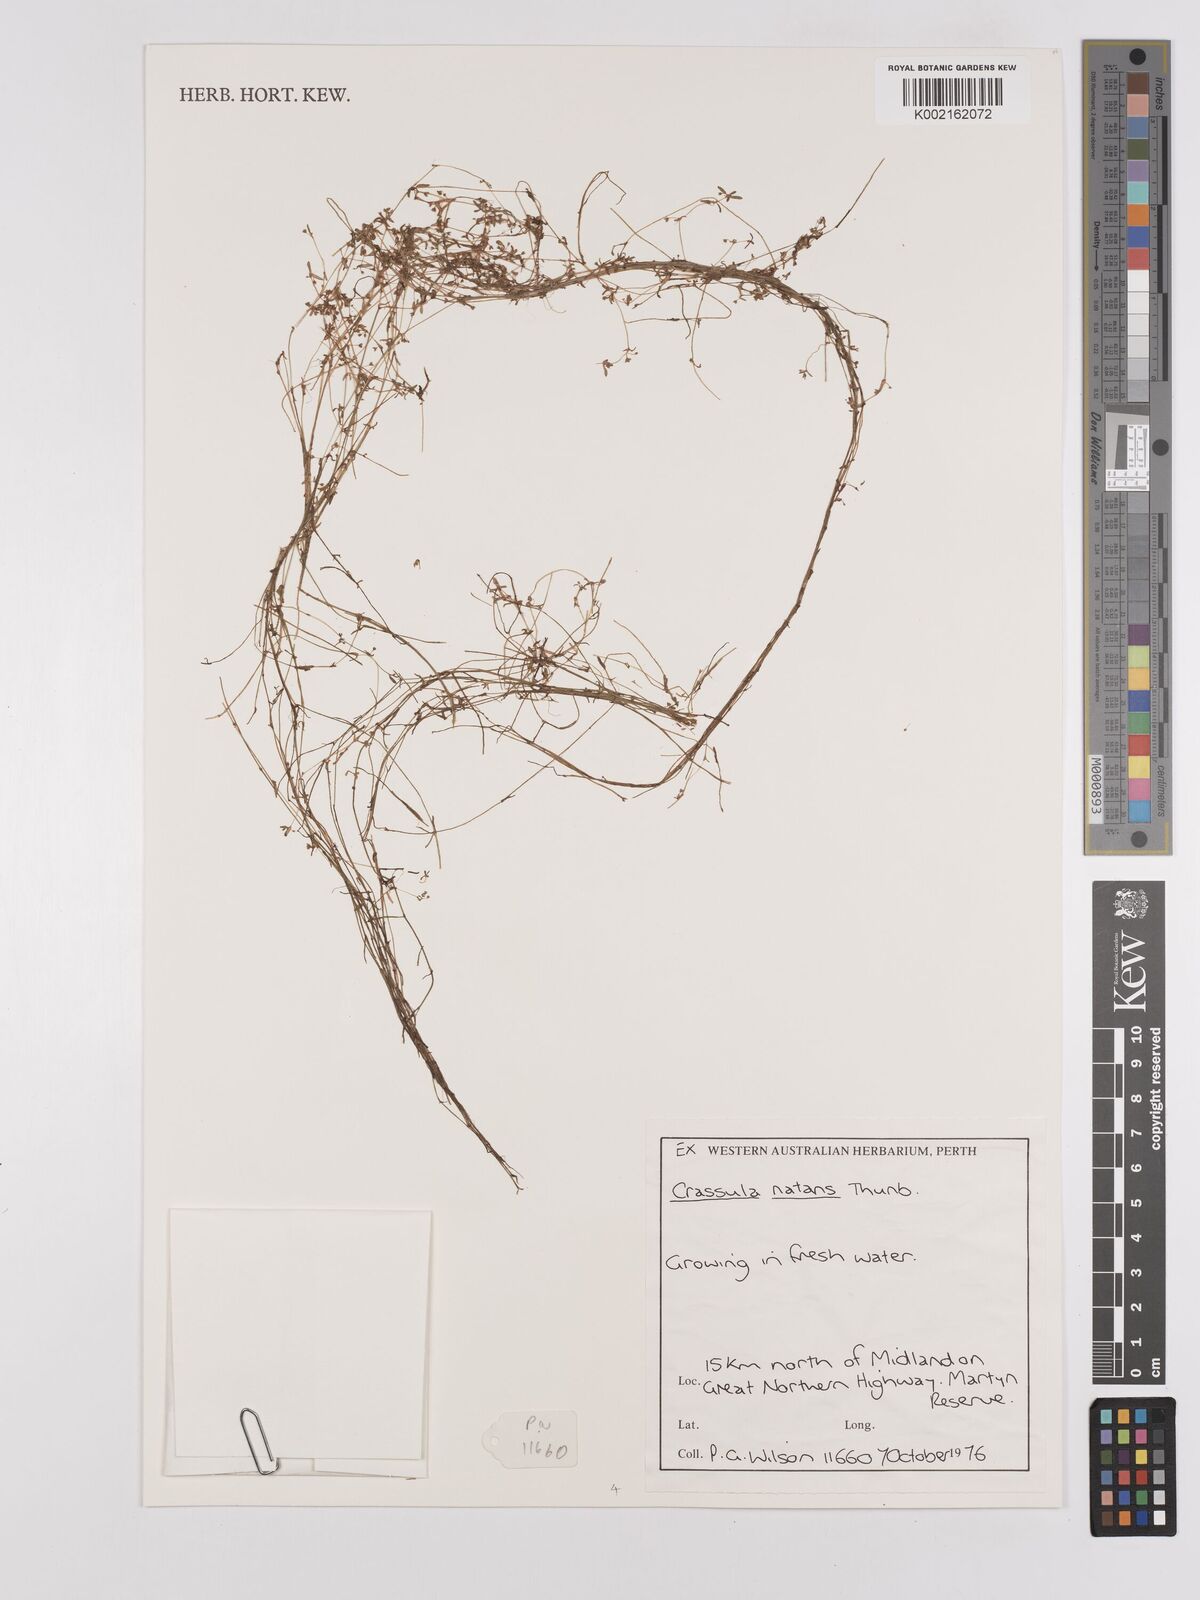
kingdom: Plantae
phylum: Tracheophyta
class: Magnoliopsida
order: Saxifragales
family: Crassulaceae
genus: Crassula
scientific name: Crassula natans
